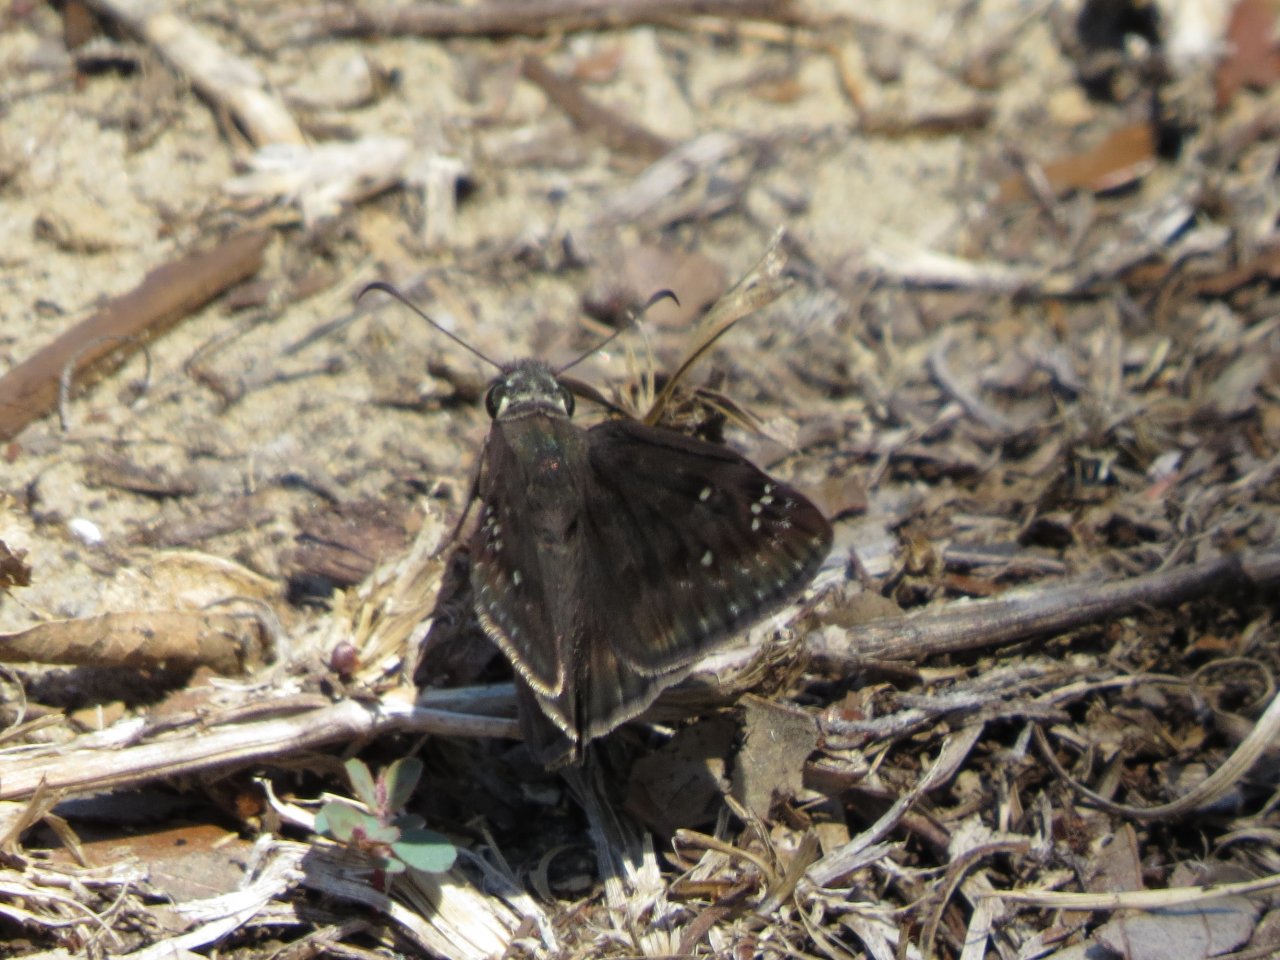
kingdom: Animalia
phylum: Arthropoda
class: Insecta
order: Lepidoptera
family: Hesperiidae
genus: Gesta
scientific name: Gesta
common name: Horace's Duskywing
